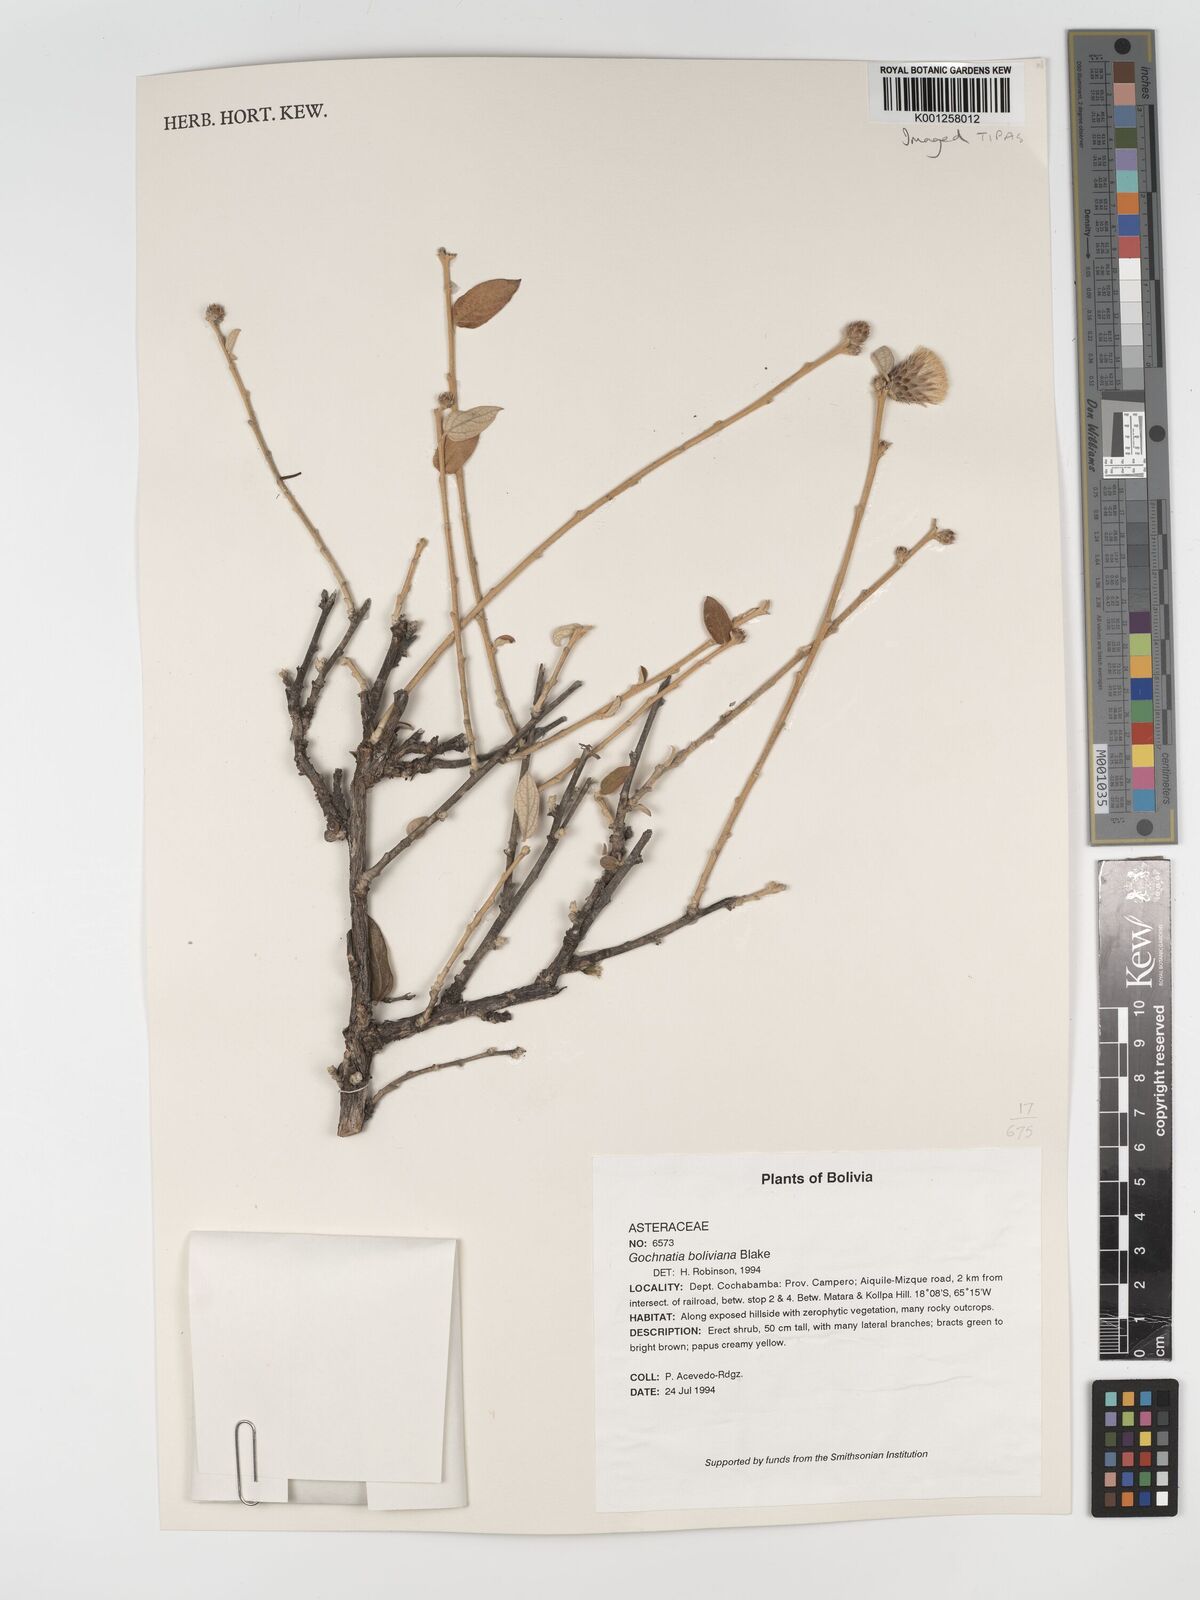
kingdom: Plantae
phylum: Tracheophyta
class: Magnoliopsida
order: Asterales
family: Asteraceae
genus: Gochnatia
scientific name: Gochnatia boliviana
